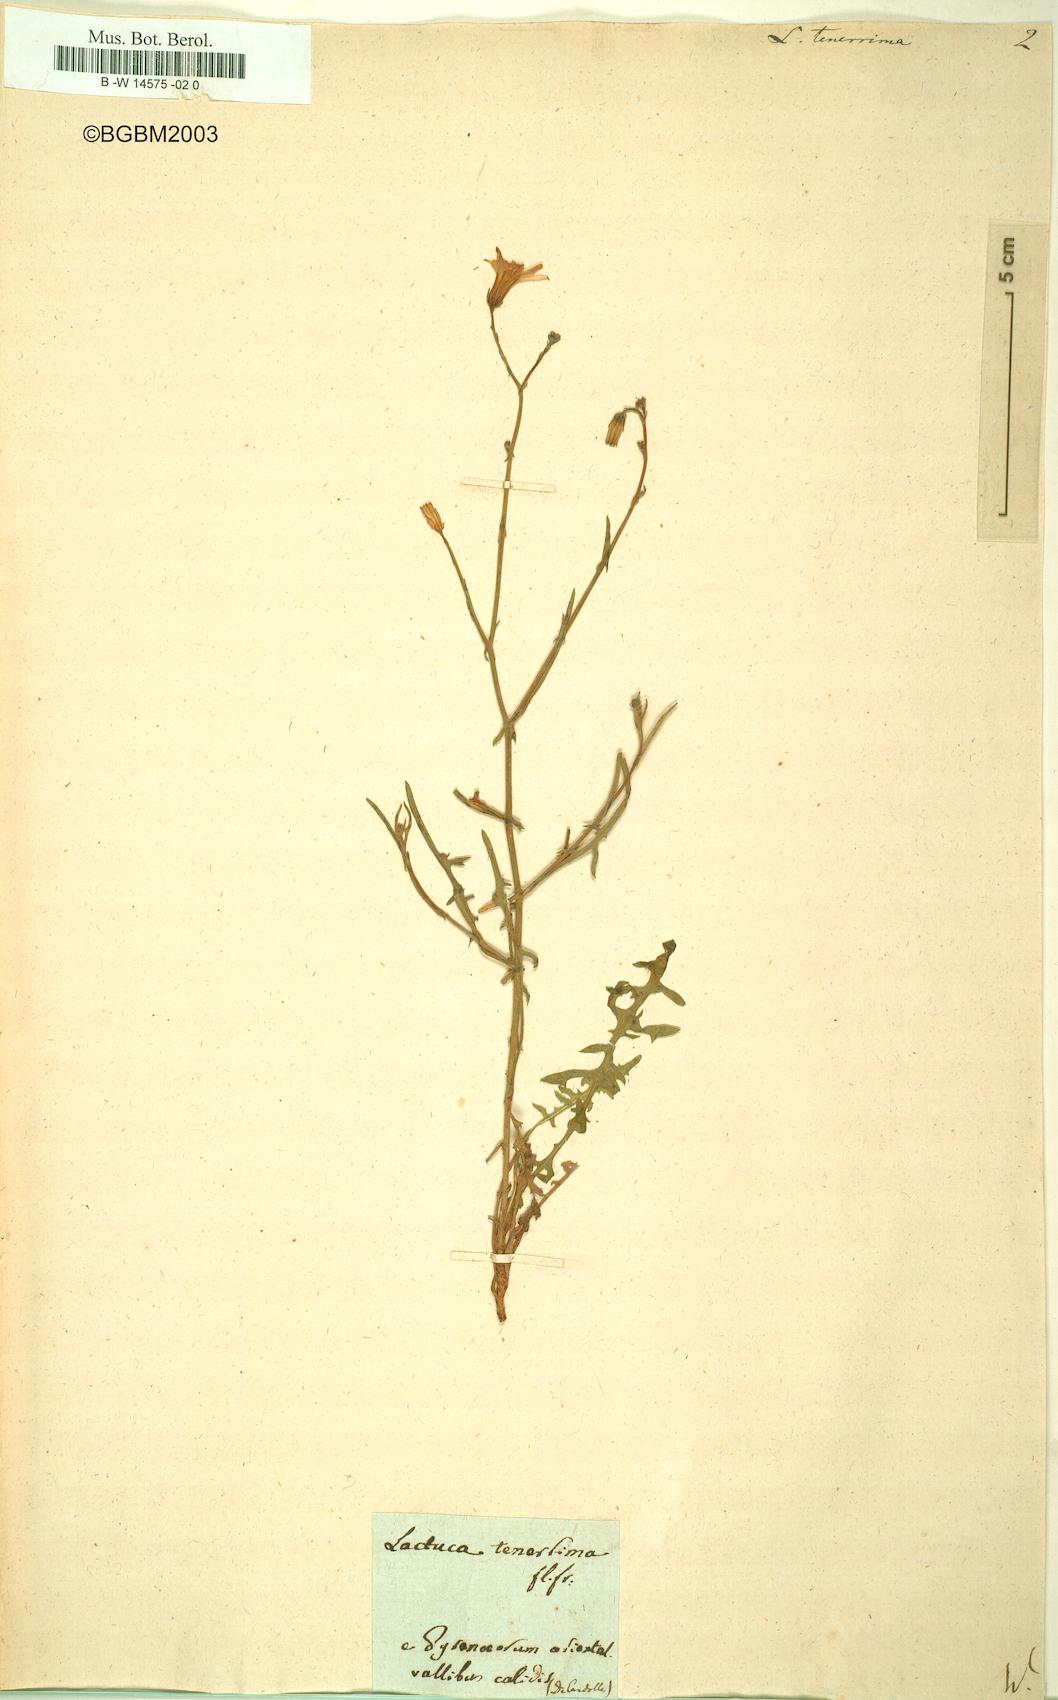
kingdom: Plantae
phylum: Tracheophyta
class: Magnoliopsida
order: Asterales
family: Asteraceae
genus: Lactuca
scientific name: Lactuca tenerrima
